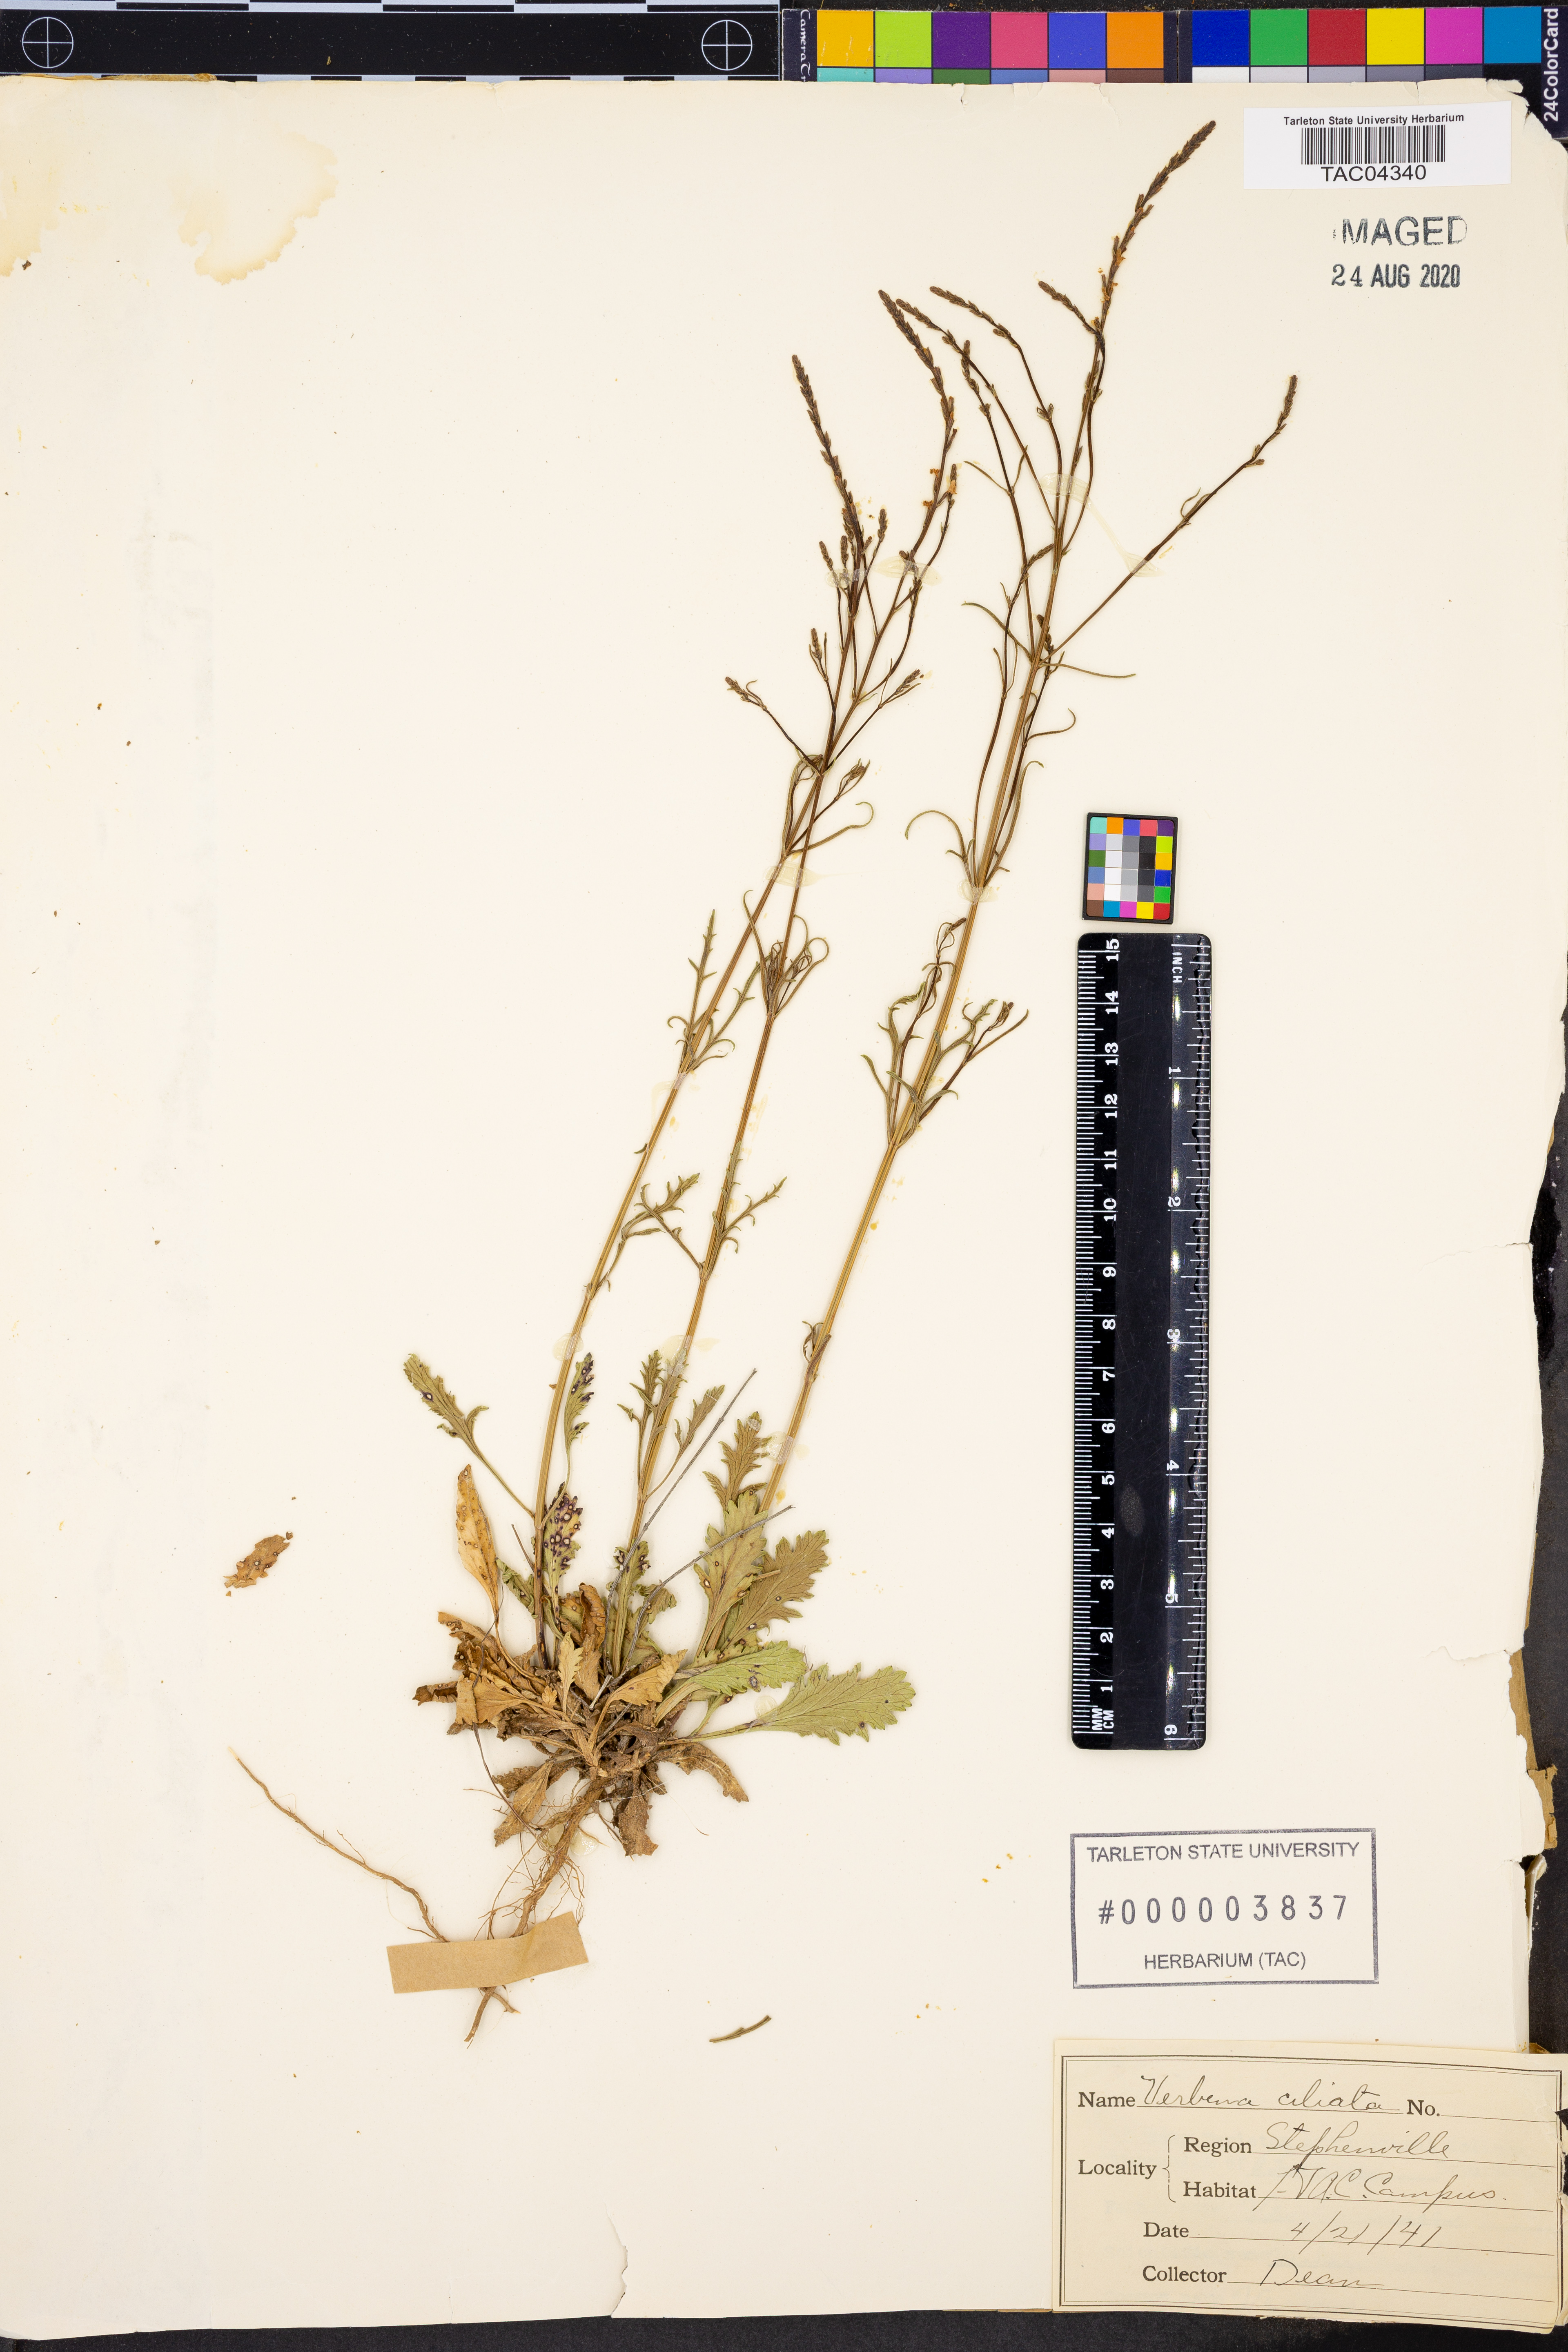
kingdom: Plantae
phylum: Tracheophyta
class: Magnoliopsida
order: Lamiales
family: Verbenaceae
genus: Verbena
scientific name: Verbena bipinnatifida
